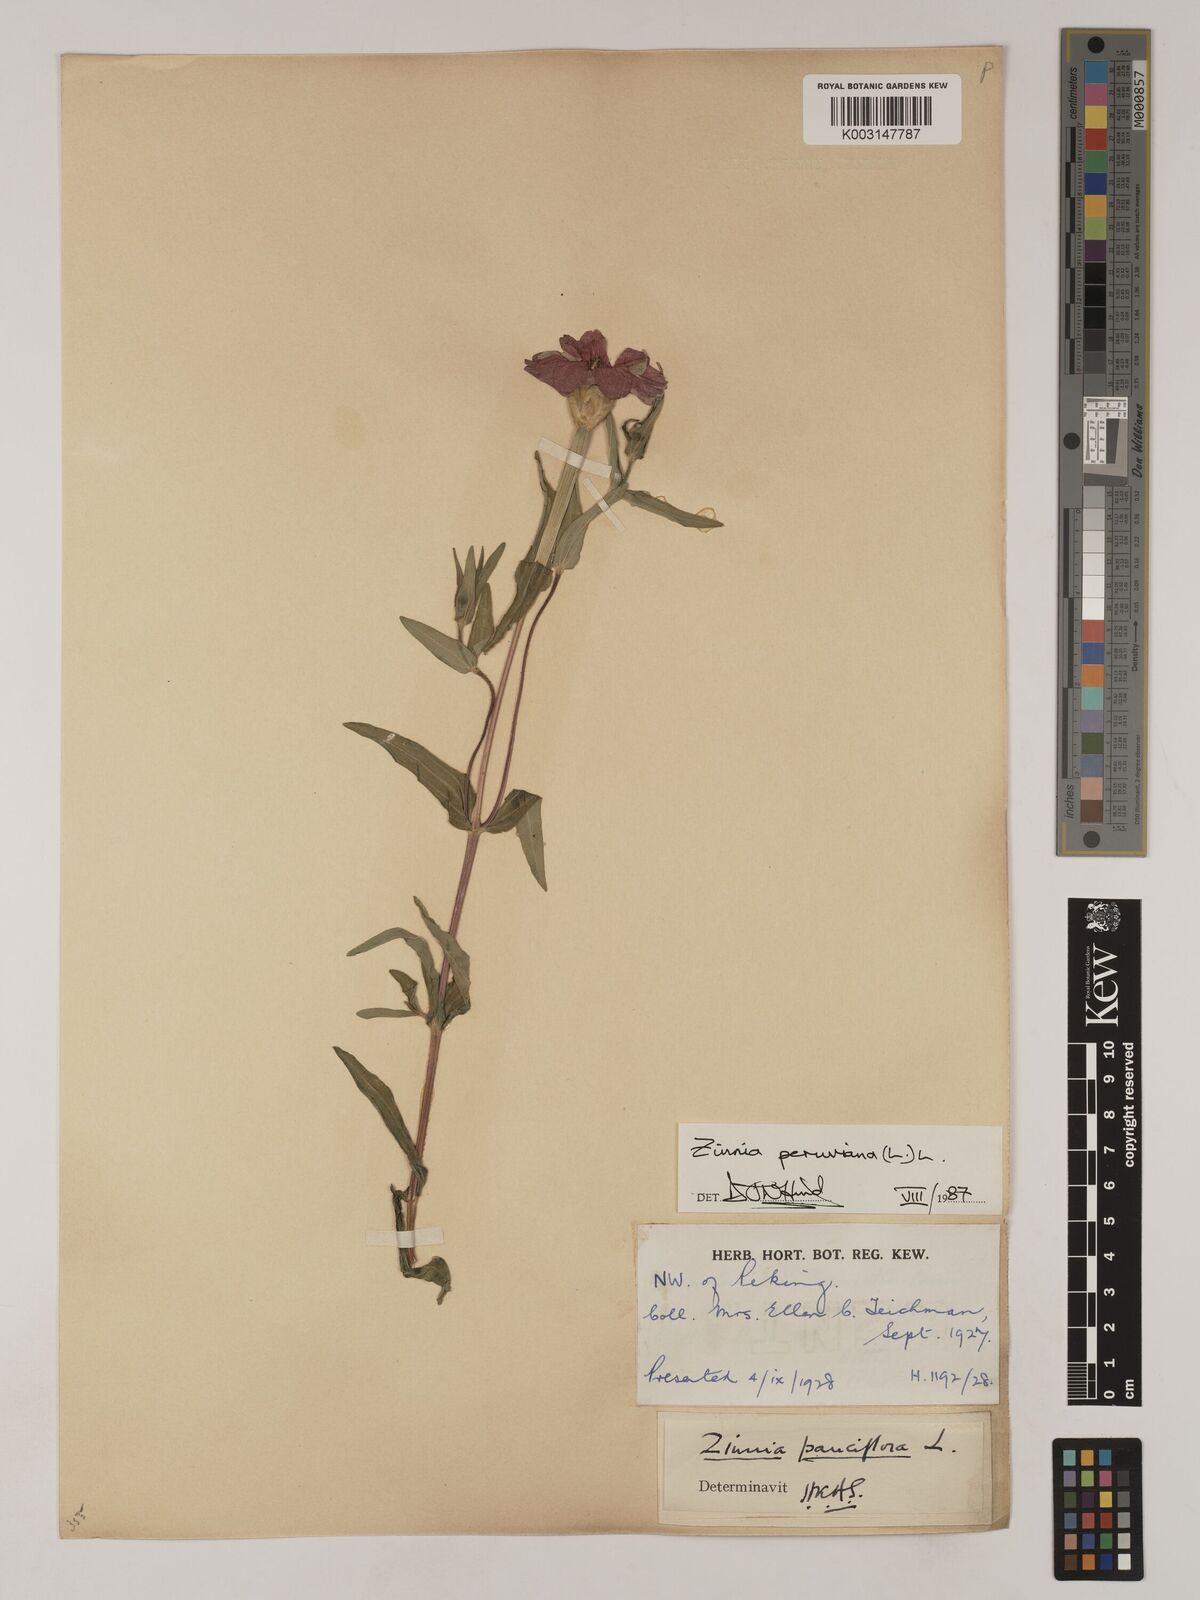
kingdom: Plantae
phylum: Tracheophyta
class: Magnoliopsida
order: Asterales
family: Asteraceae
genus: Zinnia
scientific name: Zinnia peruviana
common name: Peruvian zinnia
